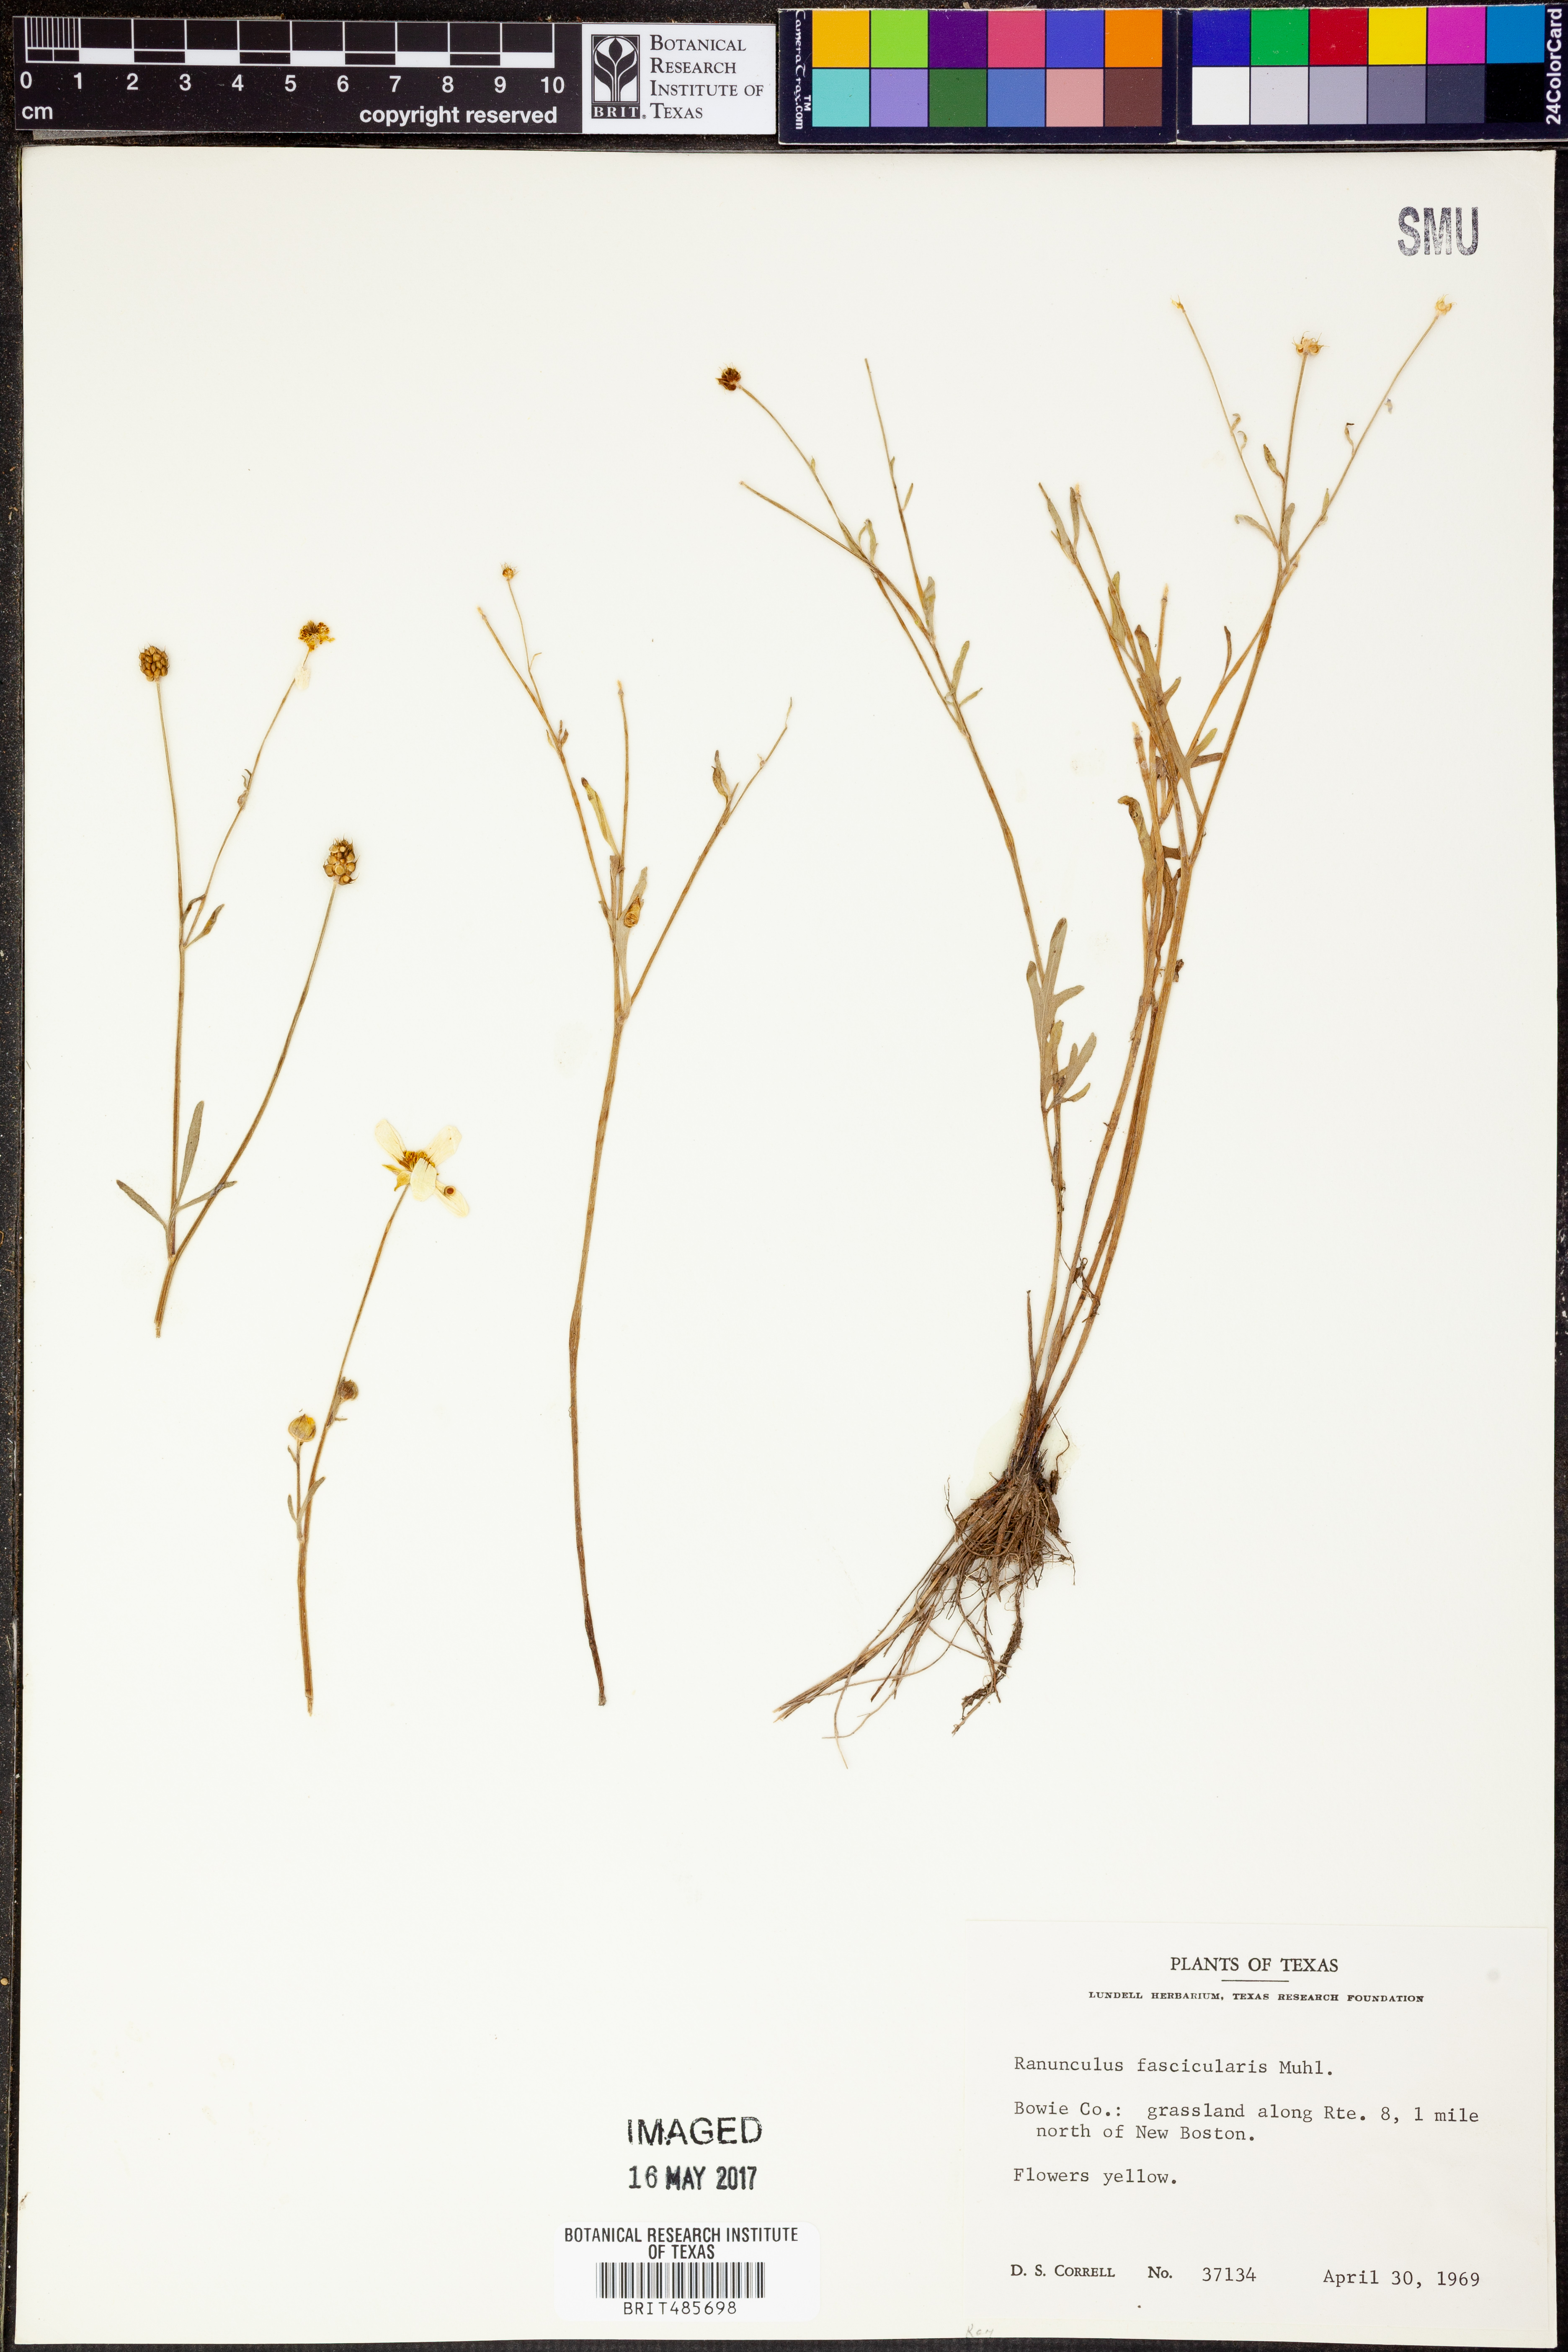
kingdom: Plantae
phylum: Tracheophyta
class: Magnoliopsida
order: Ranunculales
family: Ranunculaceae
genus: Ranunculus
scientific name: Ranunculus fascicularis
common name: Early buttercup
